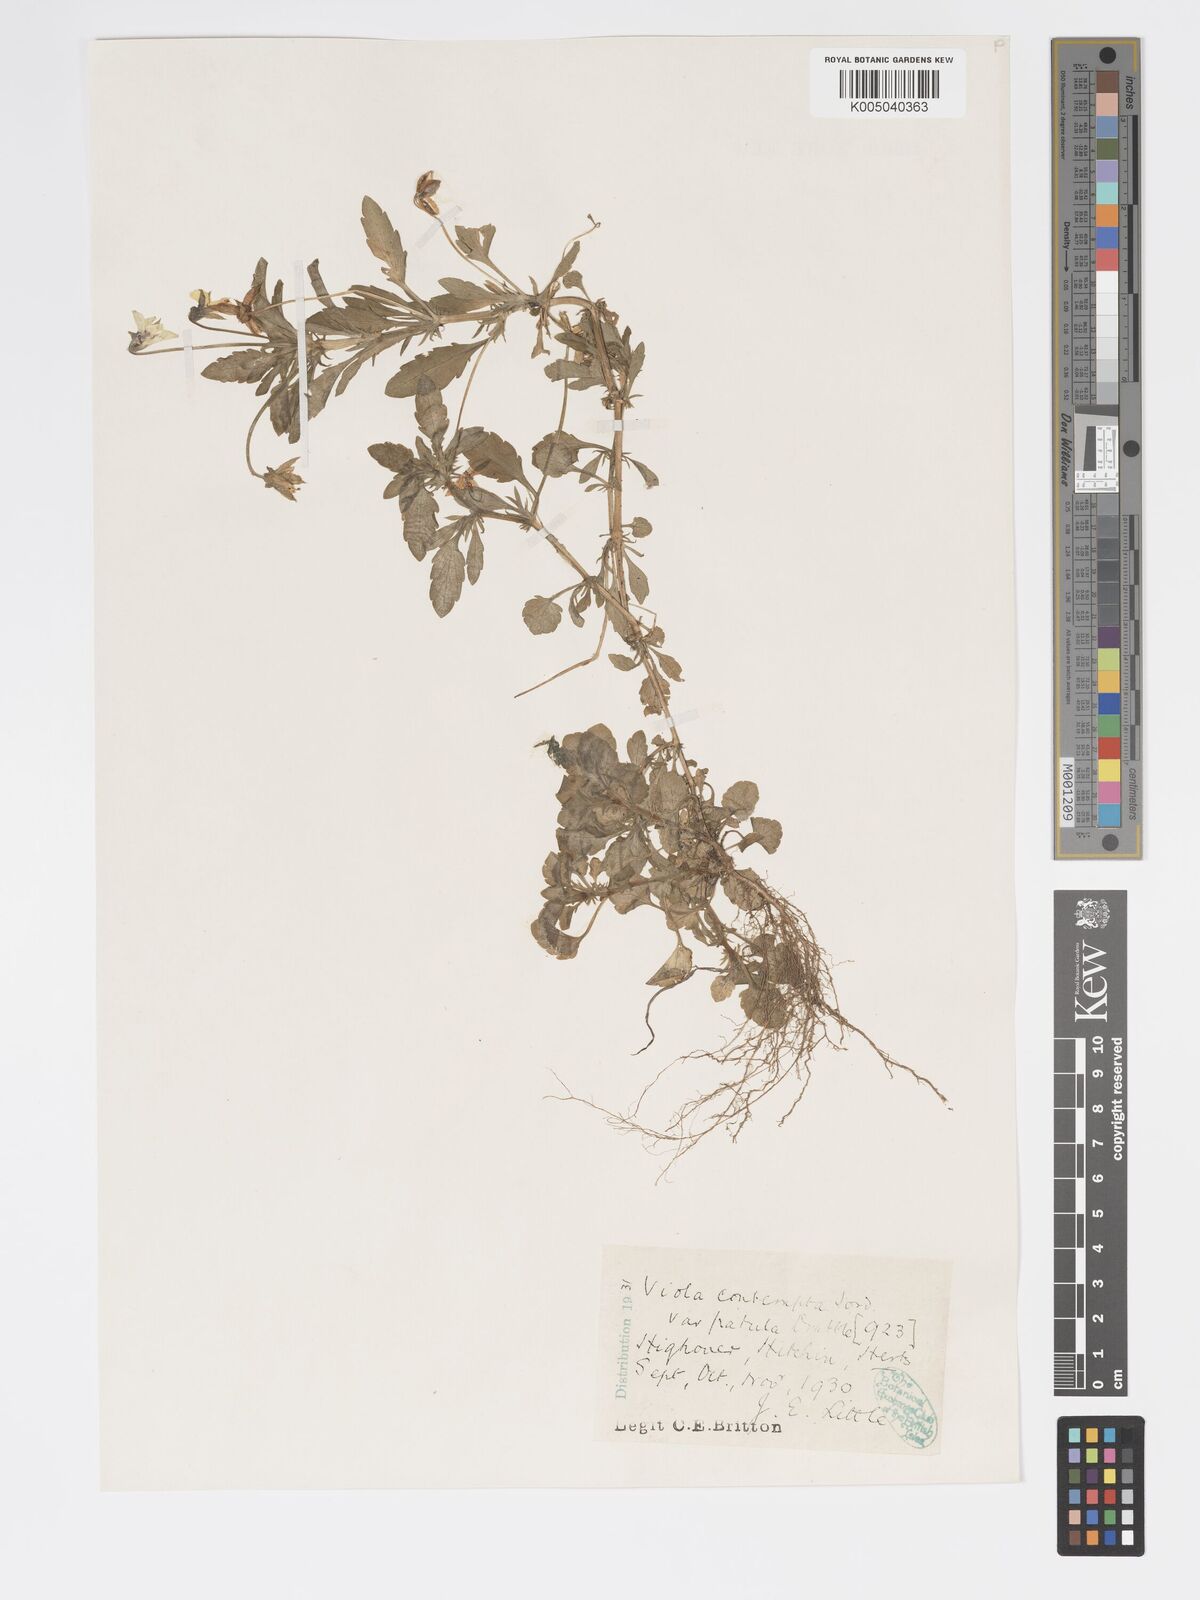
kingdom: Plantae
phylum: Tracheophyta
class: Magnoliopsida
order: Malpighiales
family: Violaceae
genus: Viola
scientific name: Viola arvensis
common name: Field pansy
